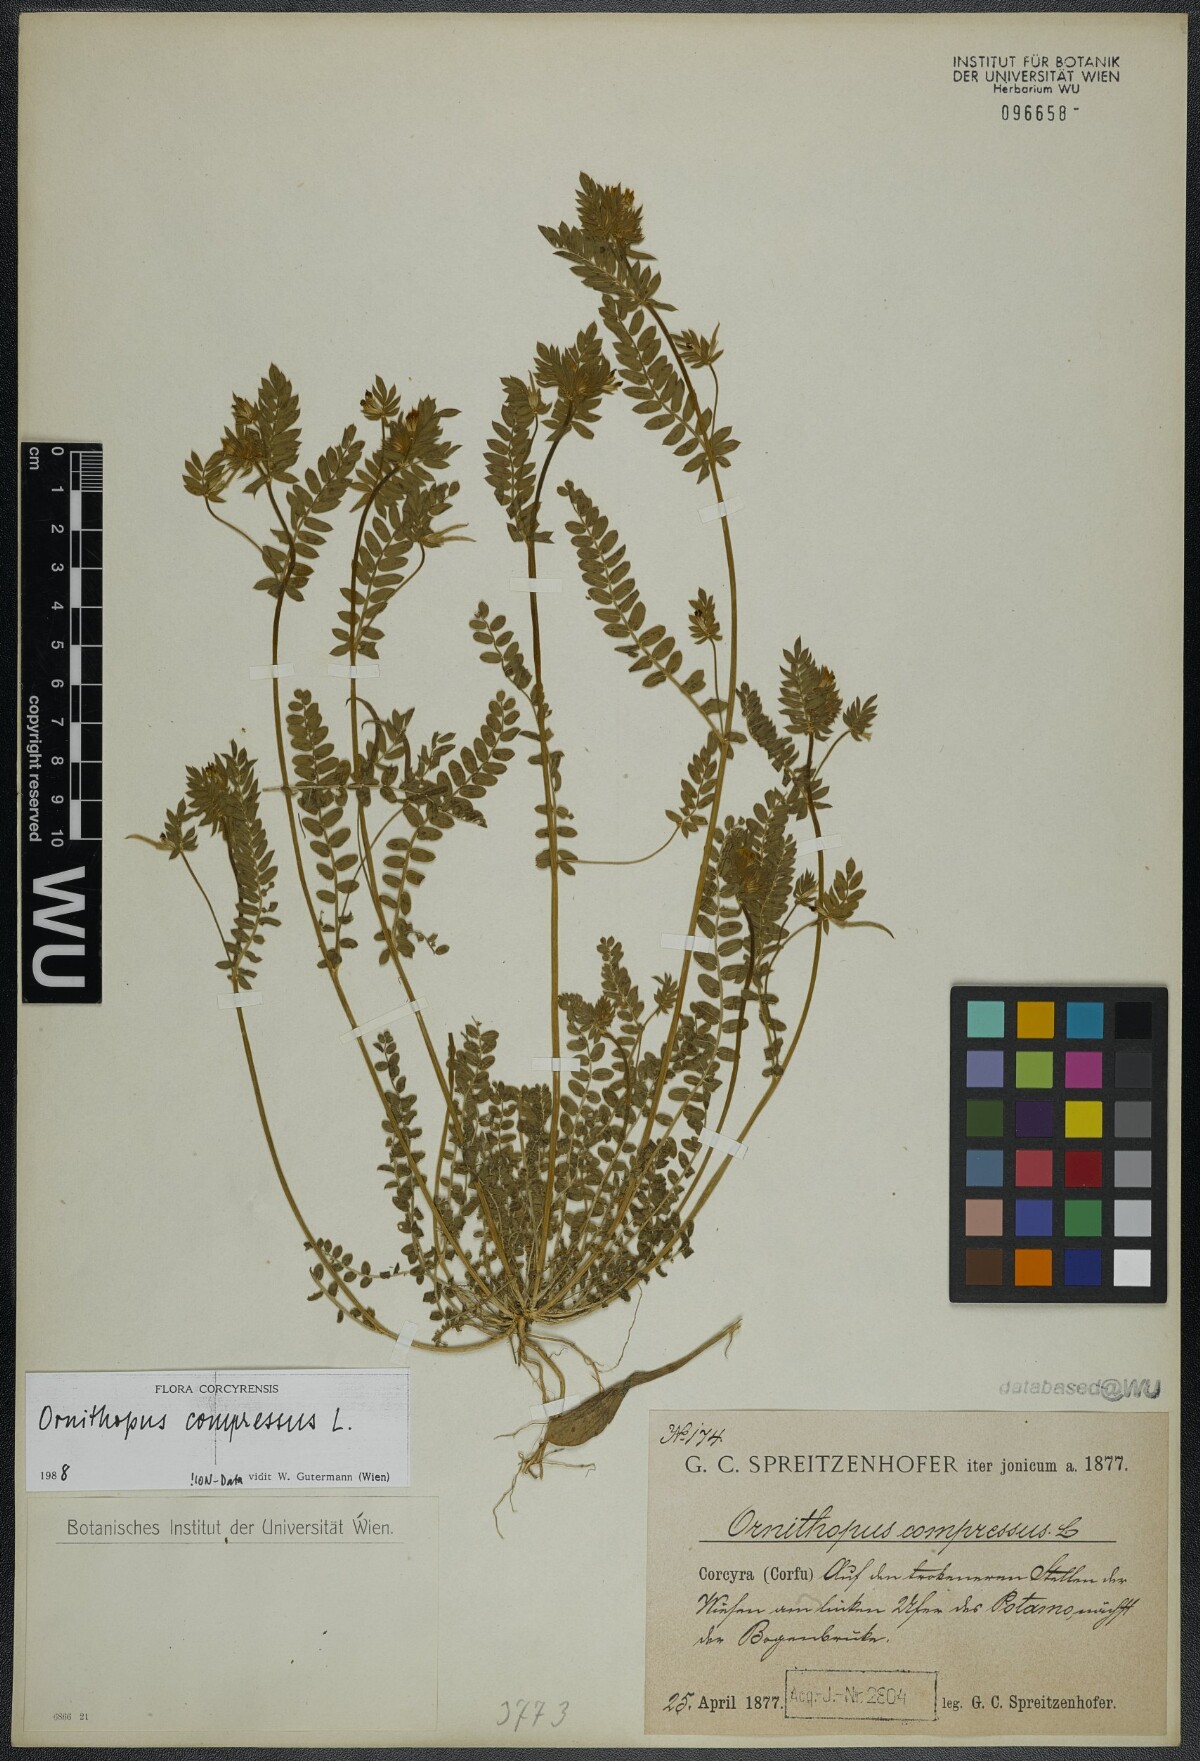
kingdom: Plantae
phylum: Tracheophyta
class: Magnoliopsida
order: Fabales
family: Fabaceae
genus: Ornithopus
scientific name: Ornithopus compressus
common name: Yellow serradella
